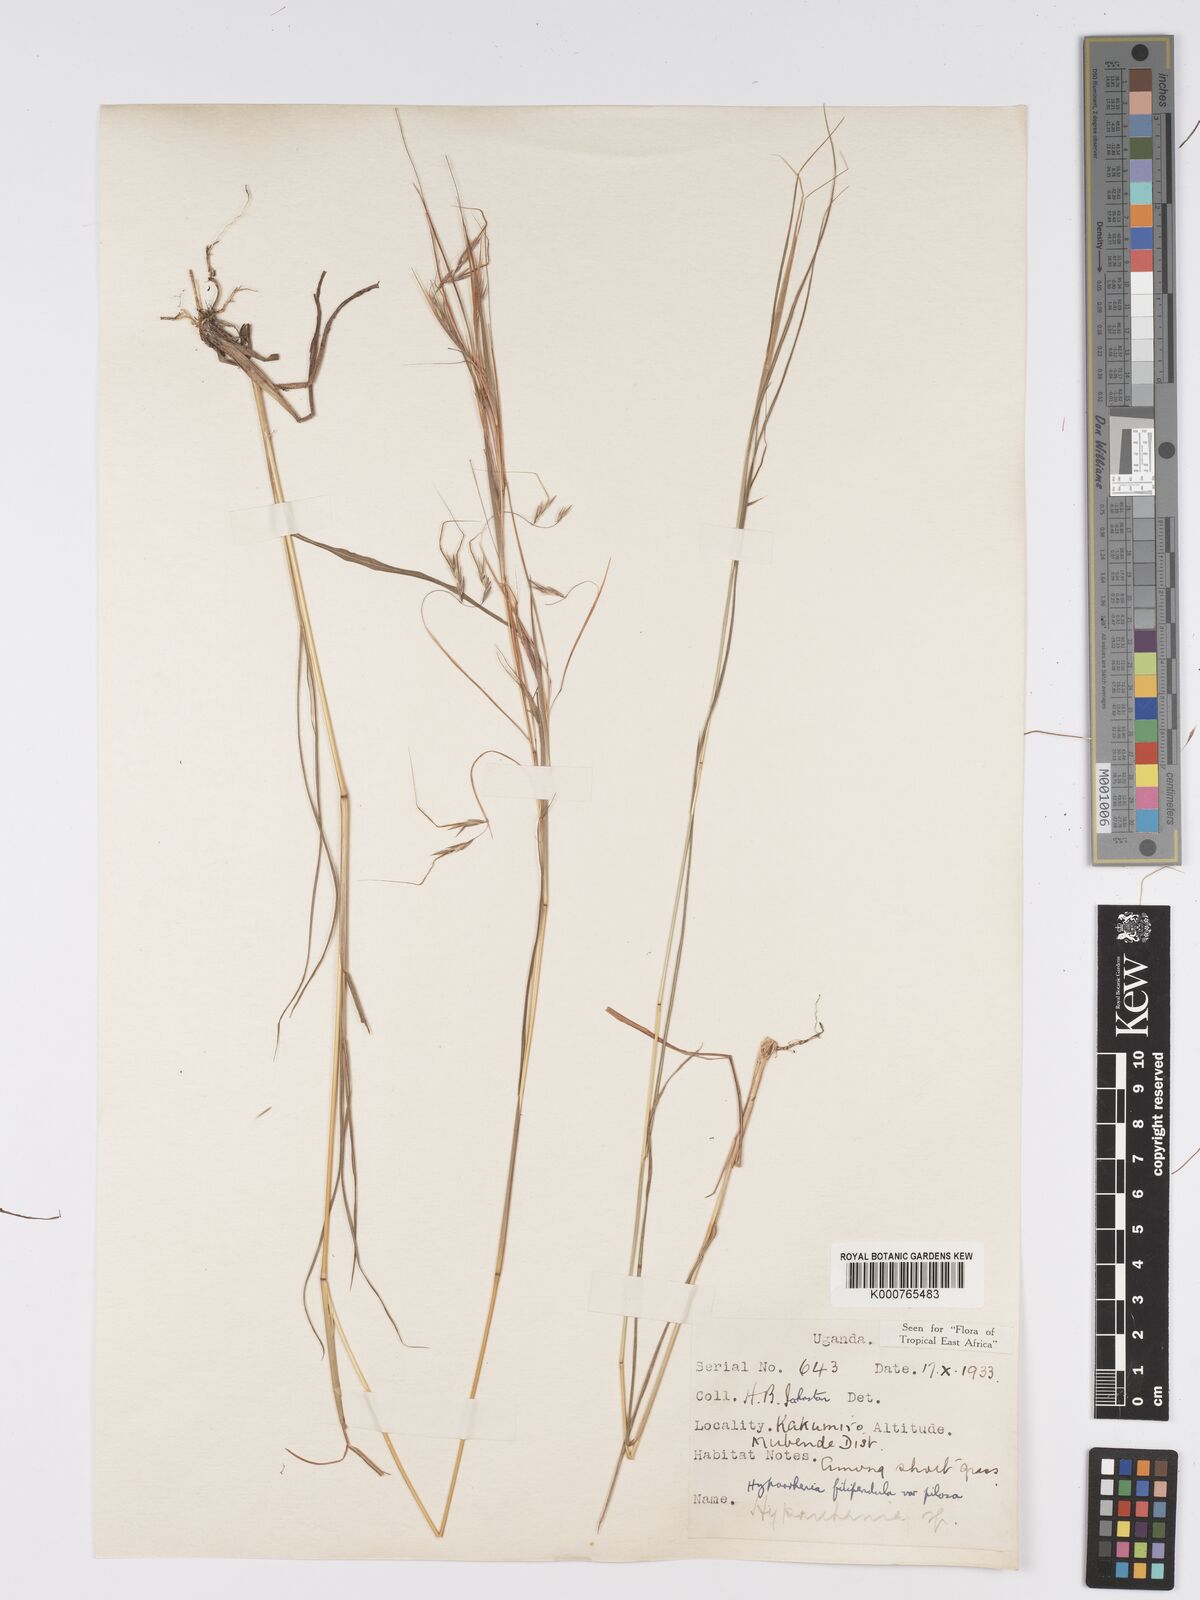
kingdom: Plantae
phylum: Tracheophyta
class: Liliopsida
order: Poales
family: Poaceae
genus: Hyparrhenia
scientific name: Hyparrhenia filipendula
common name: Tambookie grass
